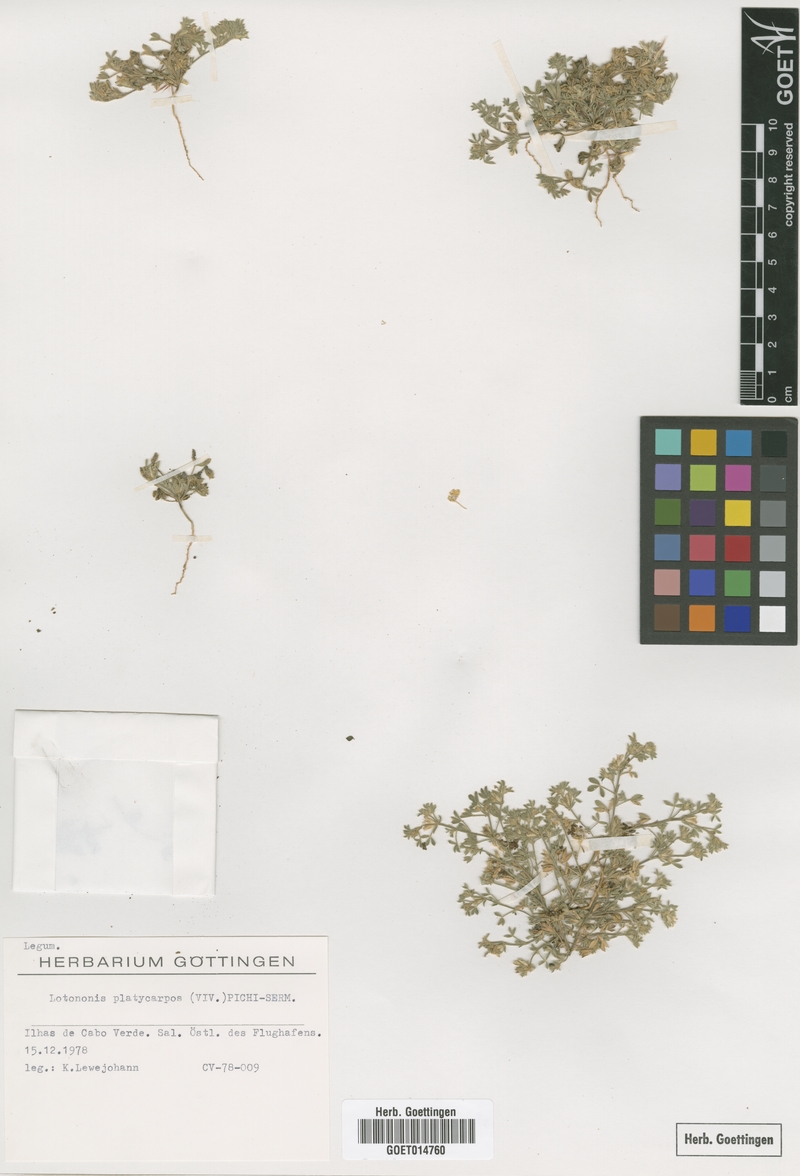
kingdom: Plantae
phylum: Tracheophyta
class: Magnoliopsida
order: Fabales
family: Fabaceae
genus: Leobordea
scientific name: Leobordea platycarpa
